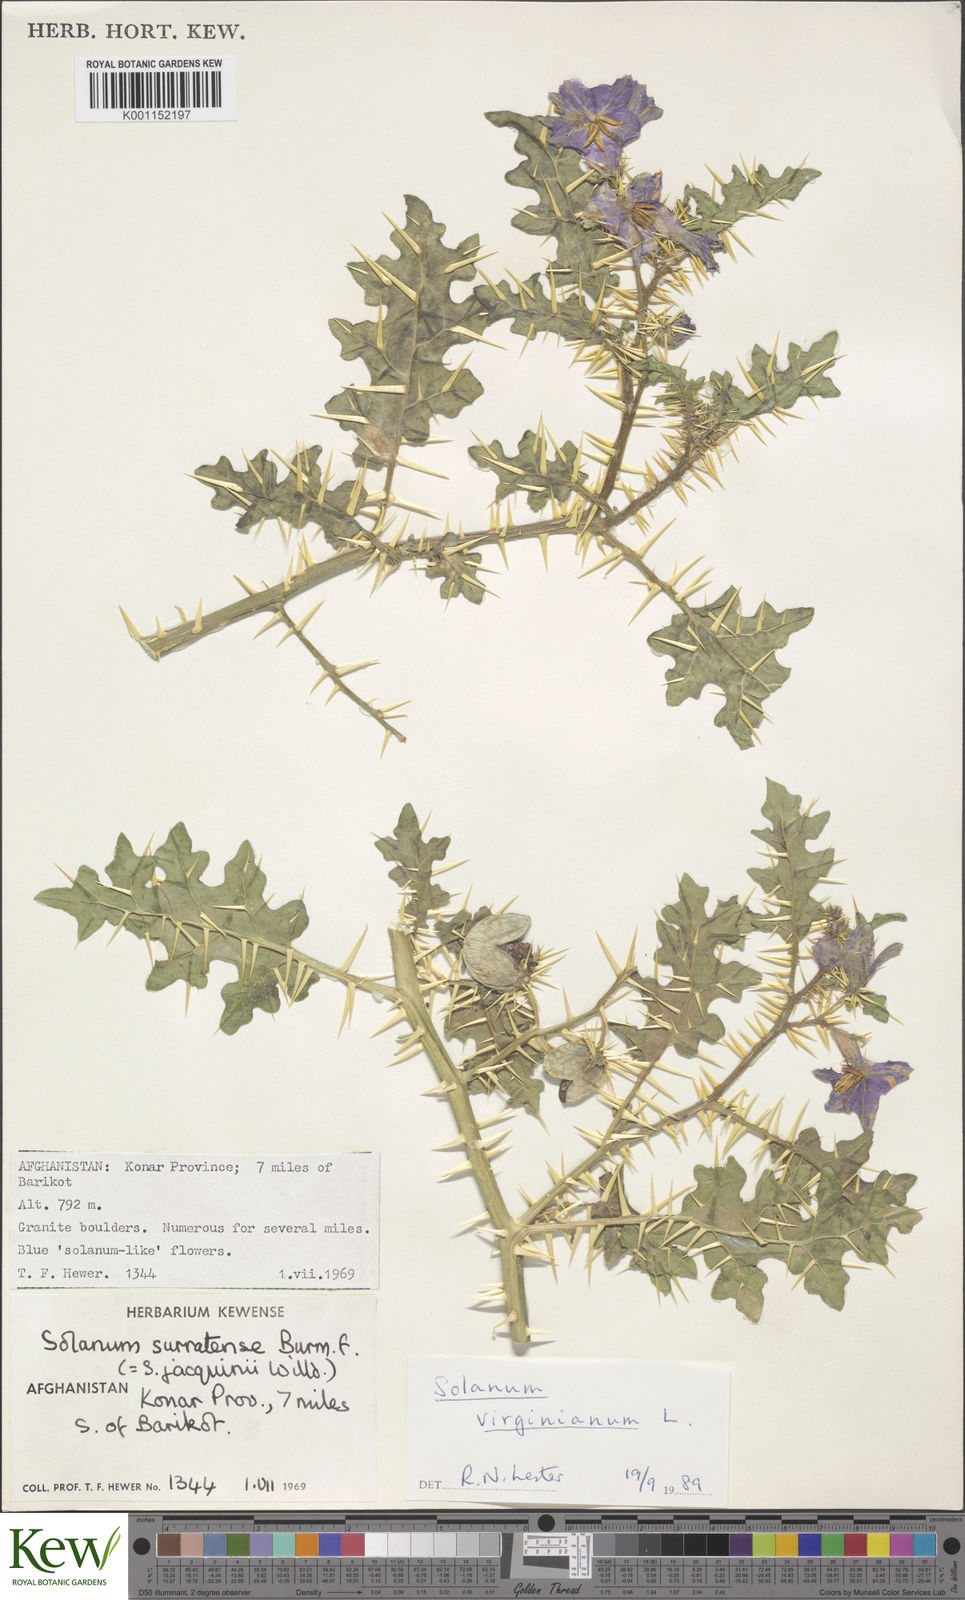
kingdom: Plantae
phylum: Tracheophyta
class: Magnoliopsida
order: Solanales
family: Solanaceae
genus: Solanum
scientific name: Solanum virginianum
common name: Surattense nightshade
